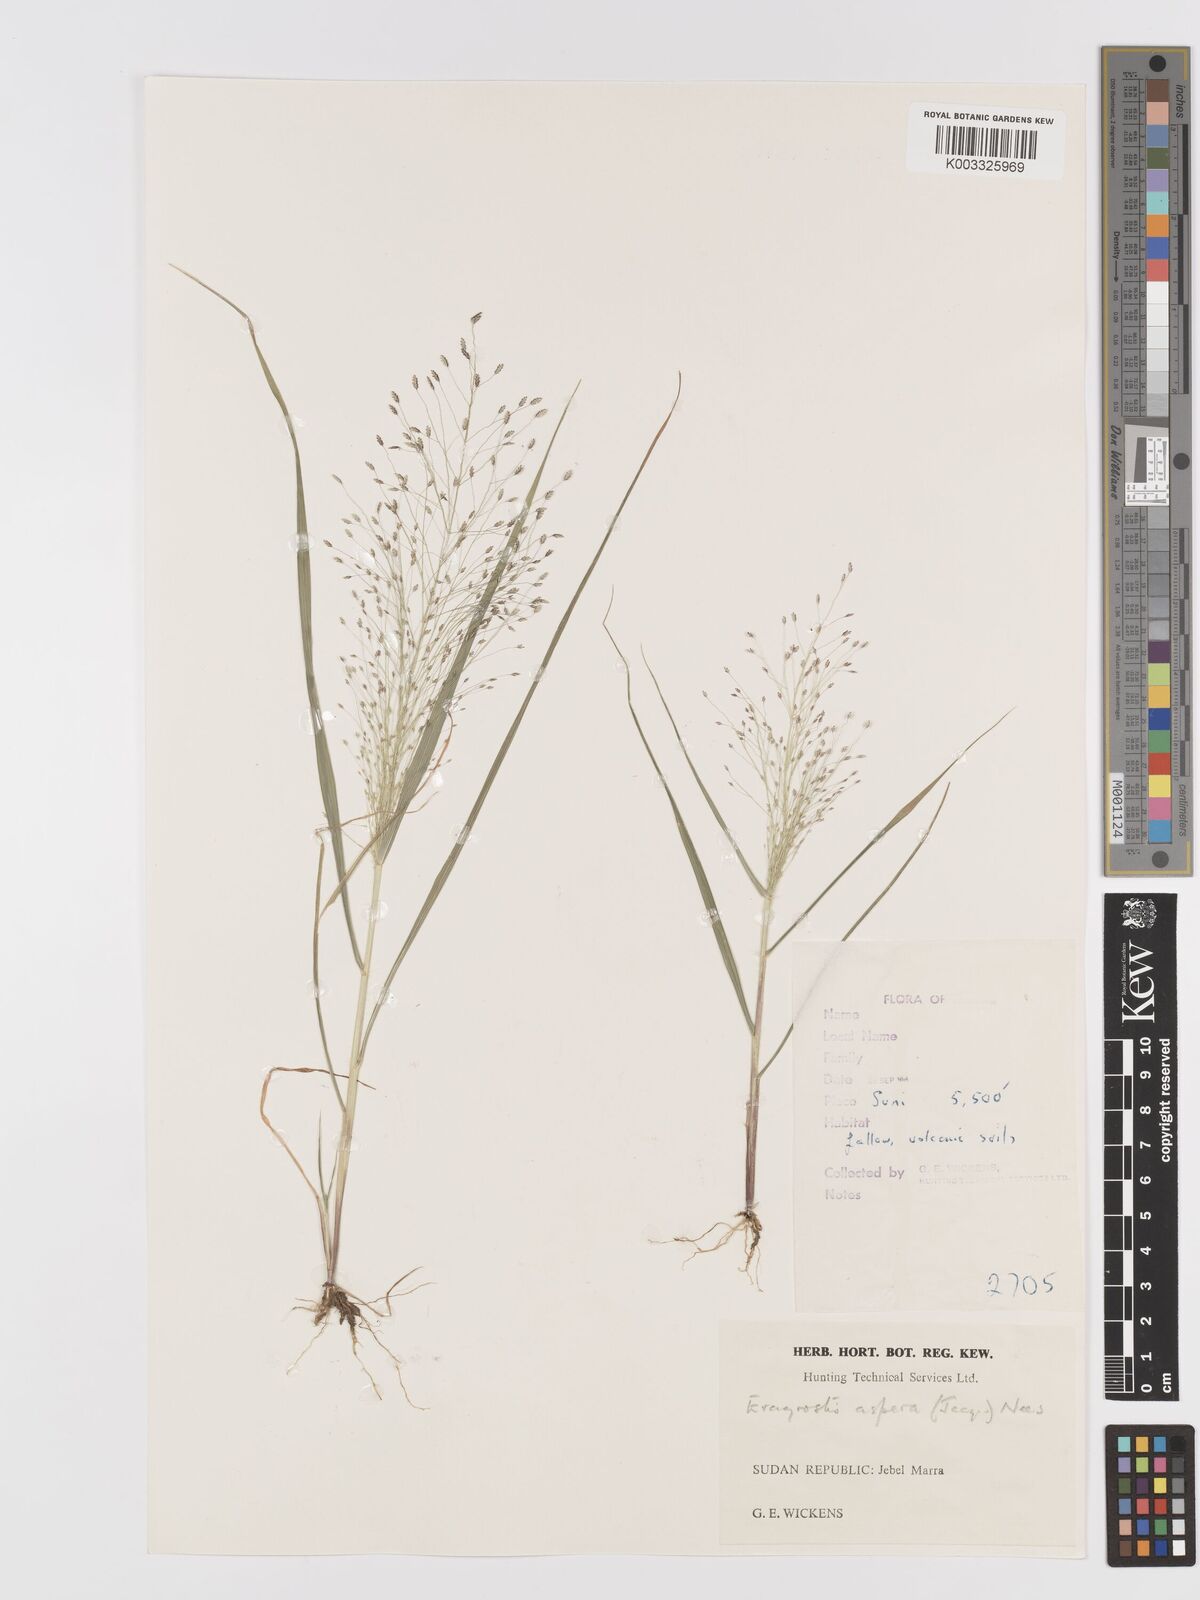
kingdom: Plantae
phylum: Tracheophyta
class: Liliopsida
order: Poales
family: Poaceae
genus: Eragrostis
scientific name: Eragrostis aspera
